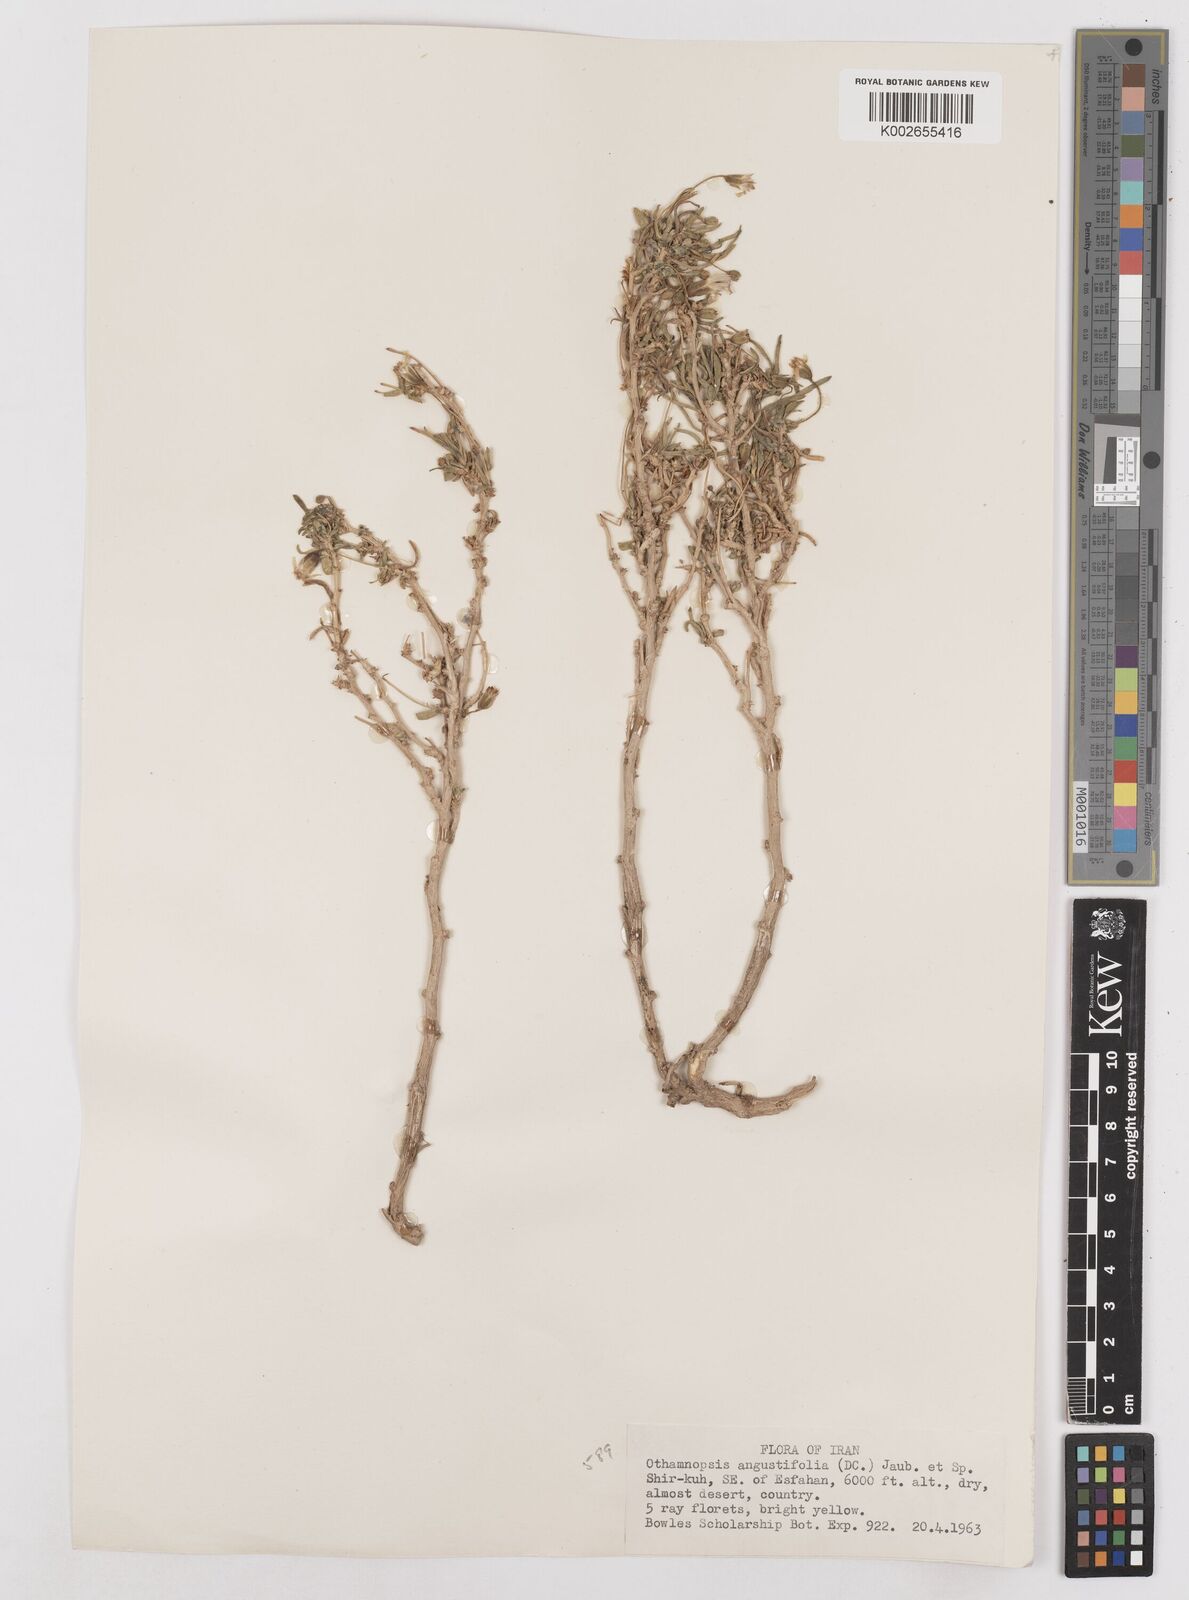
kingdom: Plantae
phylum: Tracheophyta
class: Magnoliopsida
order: Asterales
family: Asteraceae
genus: Hertia
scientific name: Hertia angustifolia
